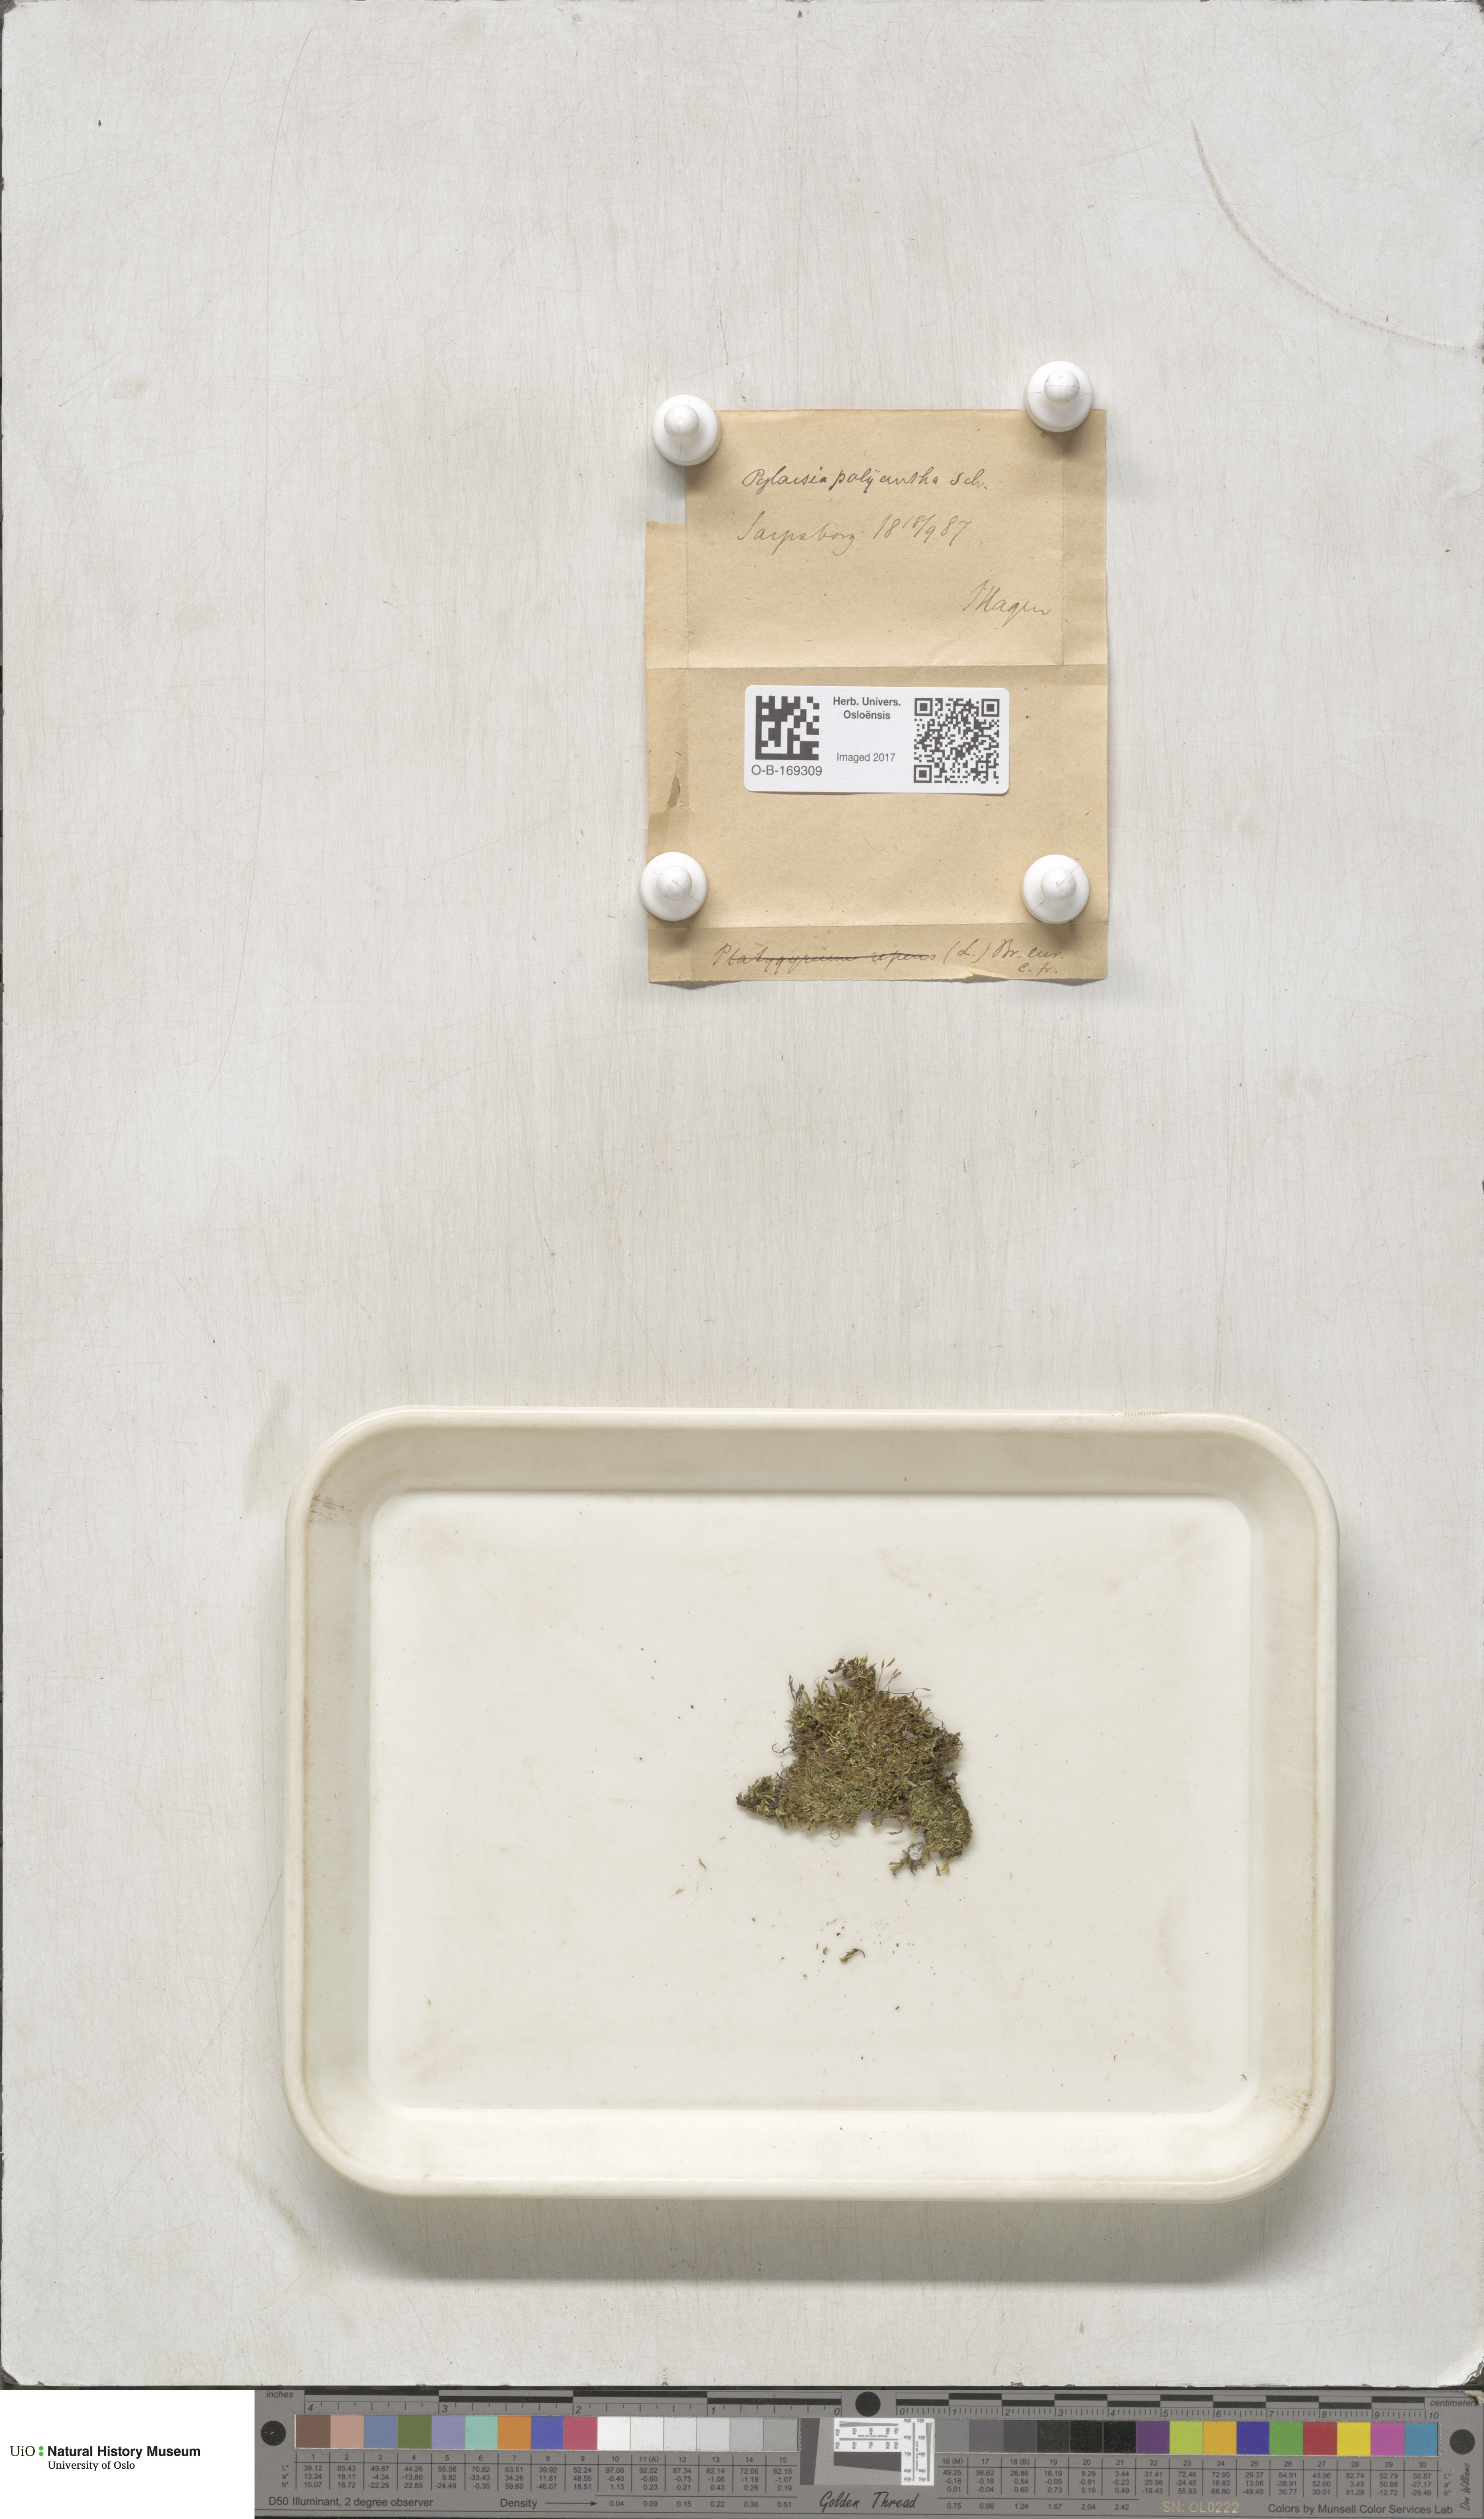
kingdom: Plantae
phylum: Bryophyta
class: Bryopsida
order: Hypnales
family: Pylaisiaceae
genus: Pylaisia
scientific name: Pylaisia polyantha
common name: Many-flowered leskea
